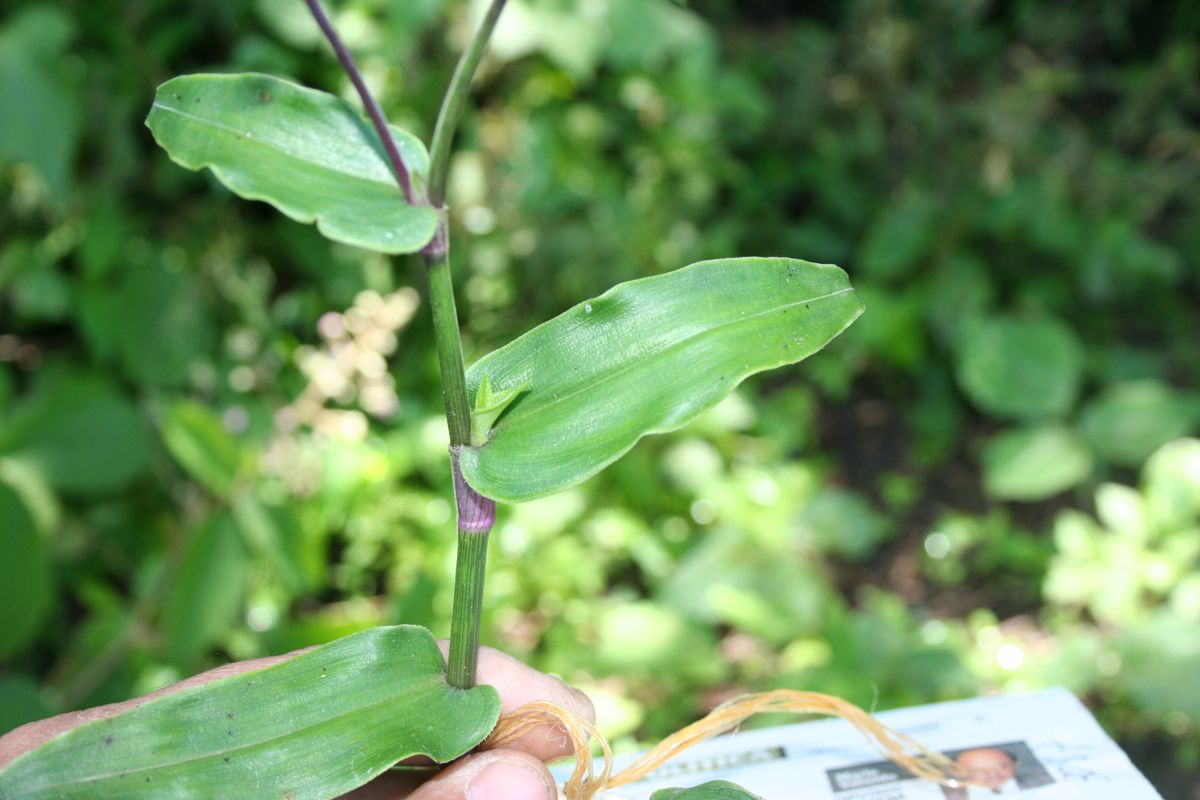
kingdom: Plantae
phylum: Tracheophyta
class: Liliopsida
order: Commelinales
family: Commelinaceae
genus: Commelina
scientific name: Commelina
